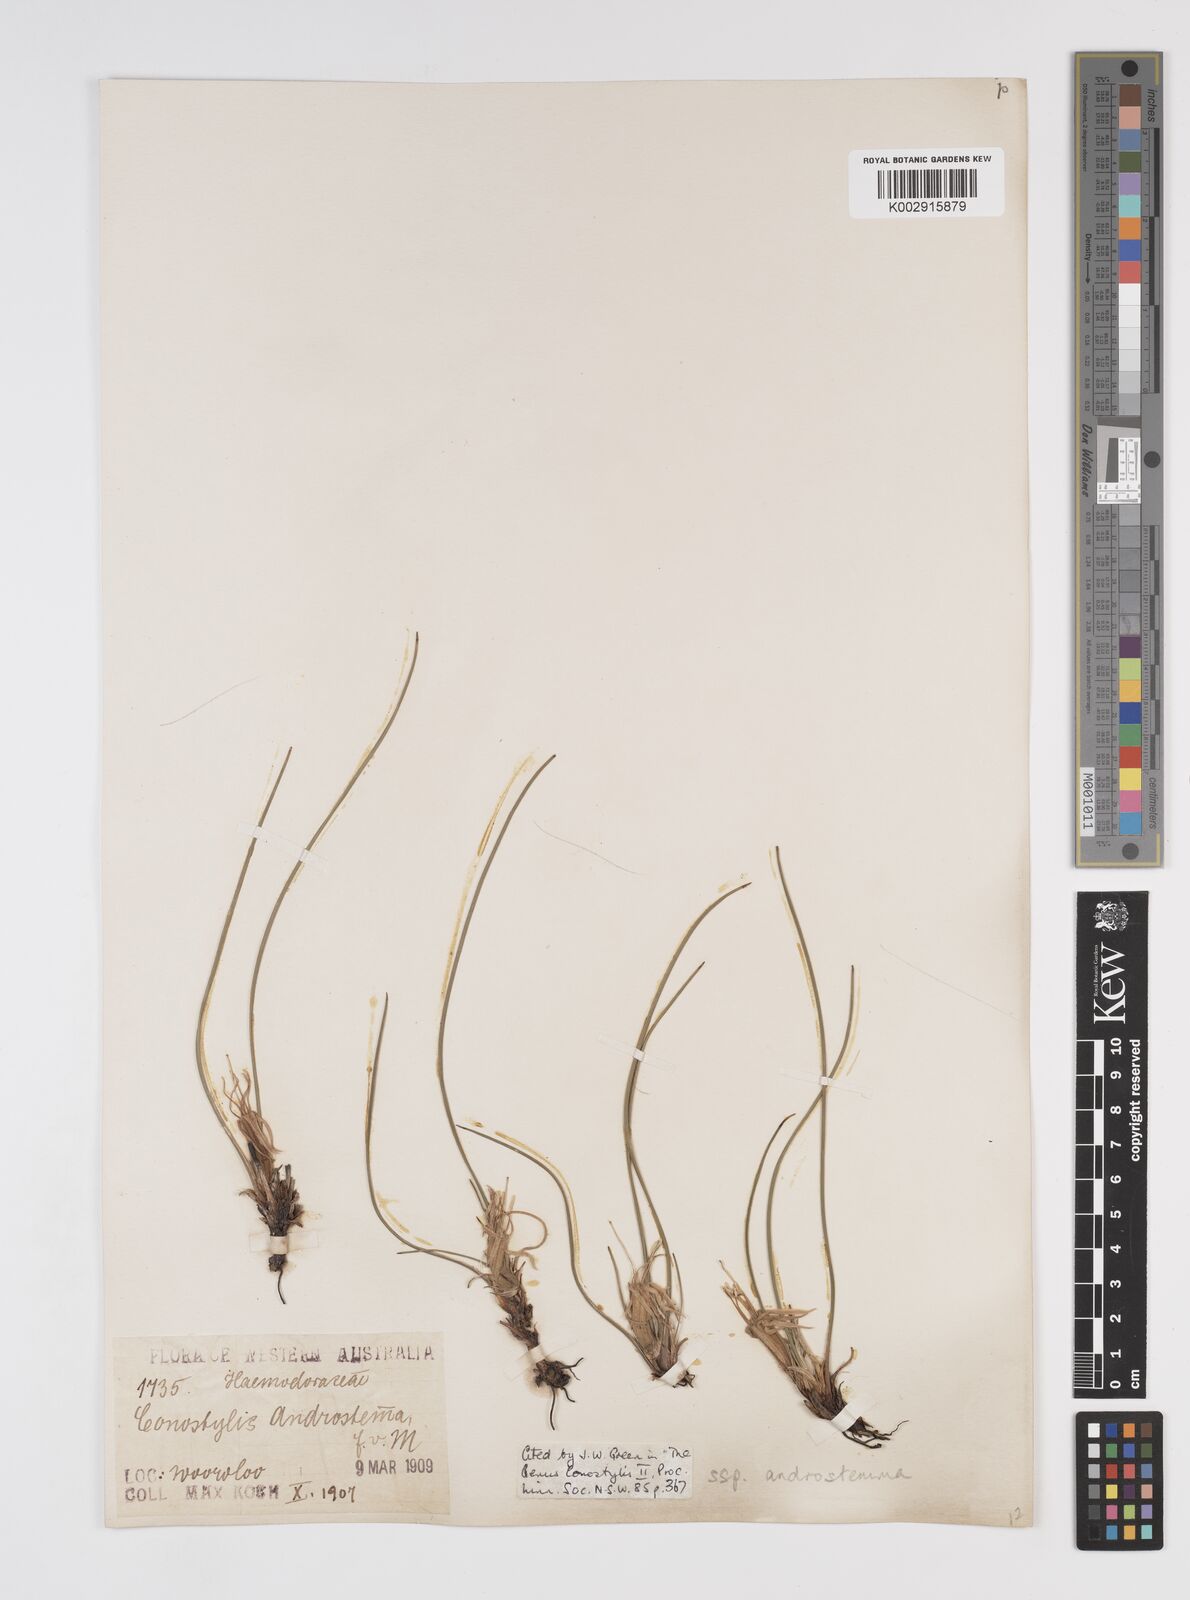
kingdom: Plantae
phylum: Tracheophyta
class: Liliopsida
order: Commelinales
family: Haemodoraceae
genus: Conostylis
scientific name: Conostylis androstemma
